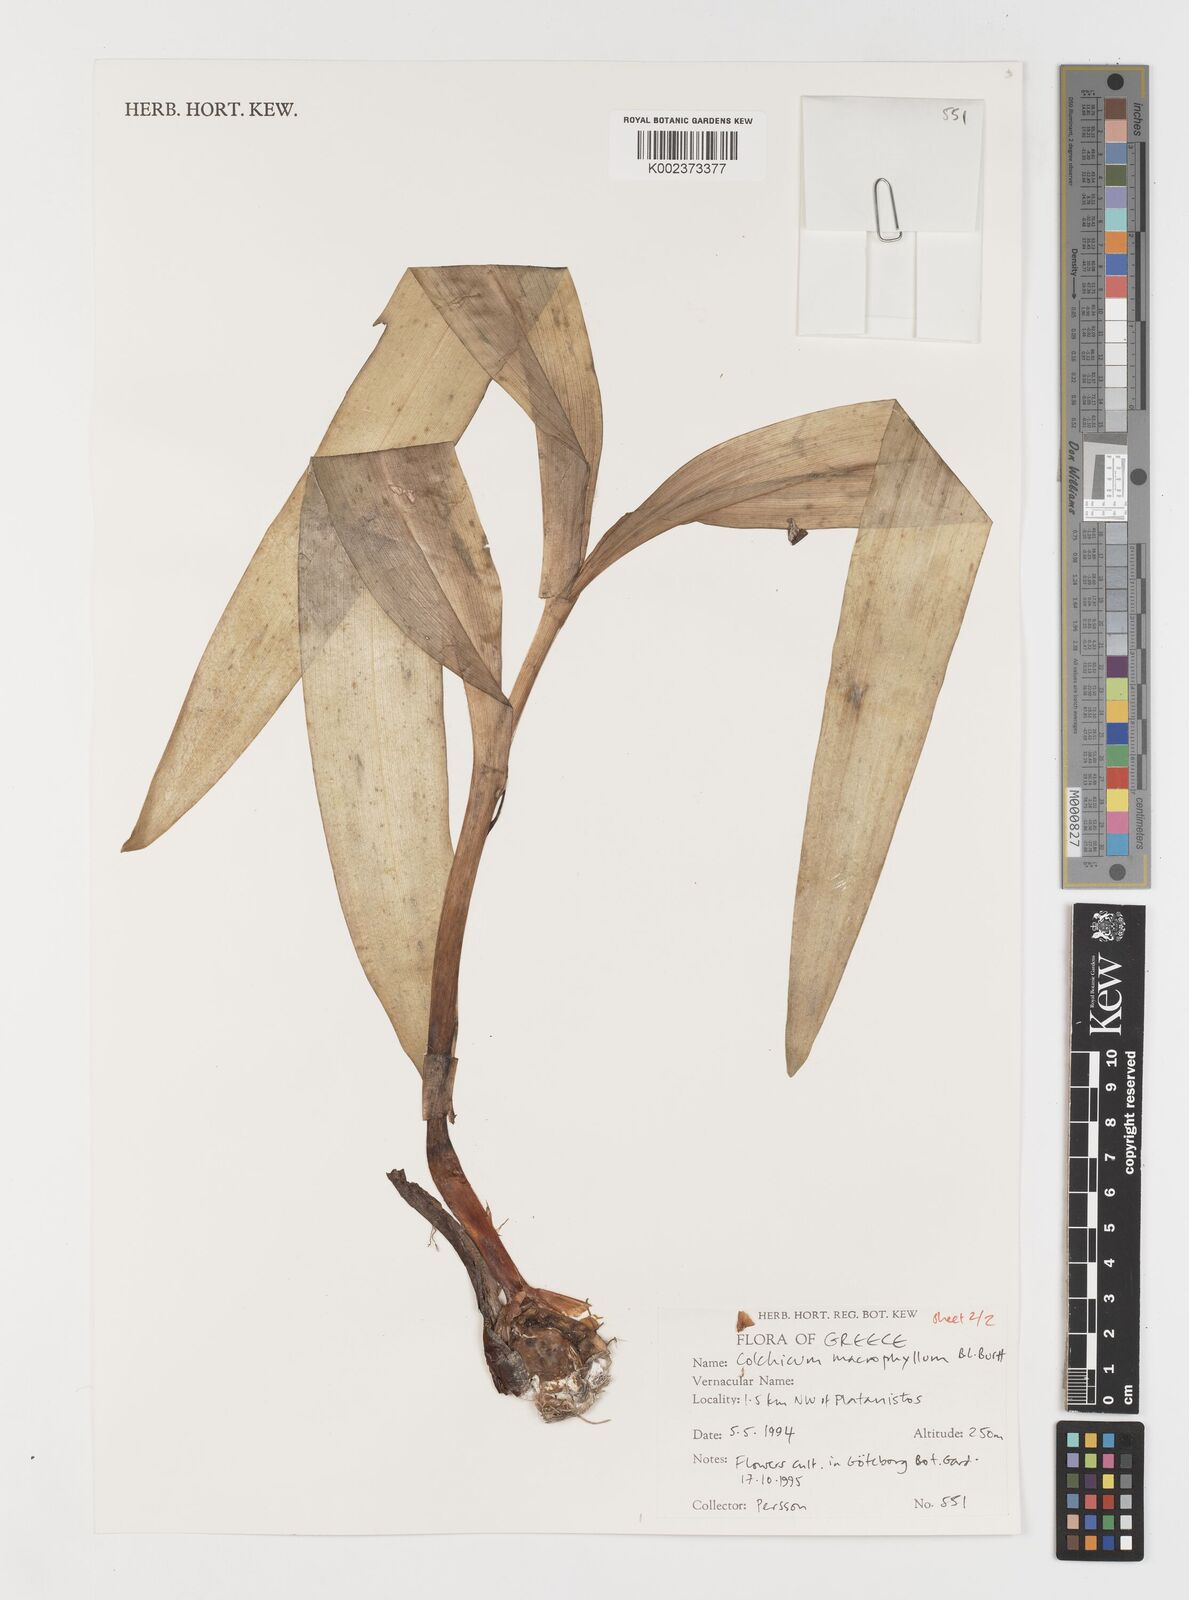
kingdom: Plantae
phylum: Tracheophyta
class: Liliopsida
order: Liliales
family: Colchicaceae
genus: Colchicum
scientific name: Colchicum macrophyllum
